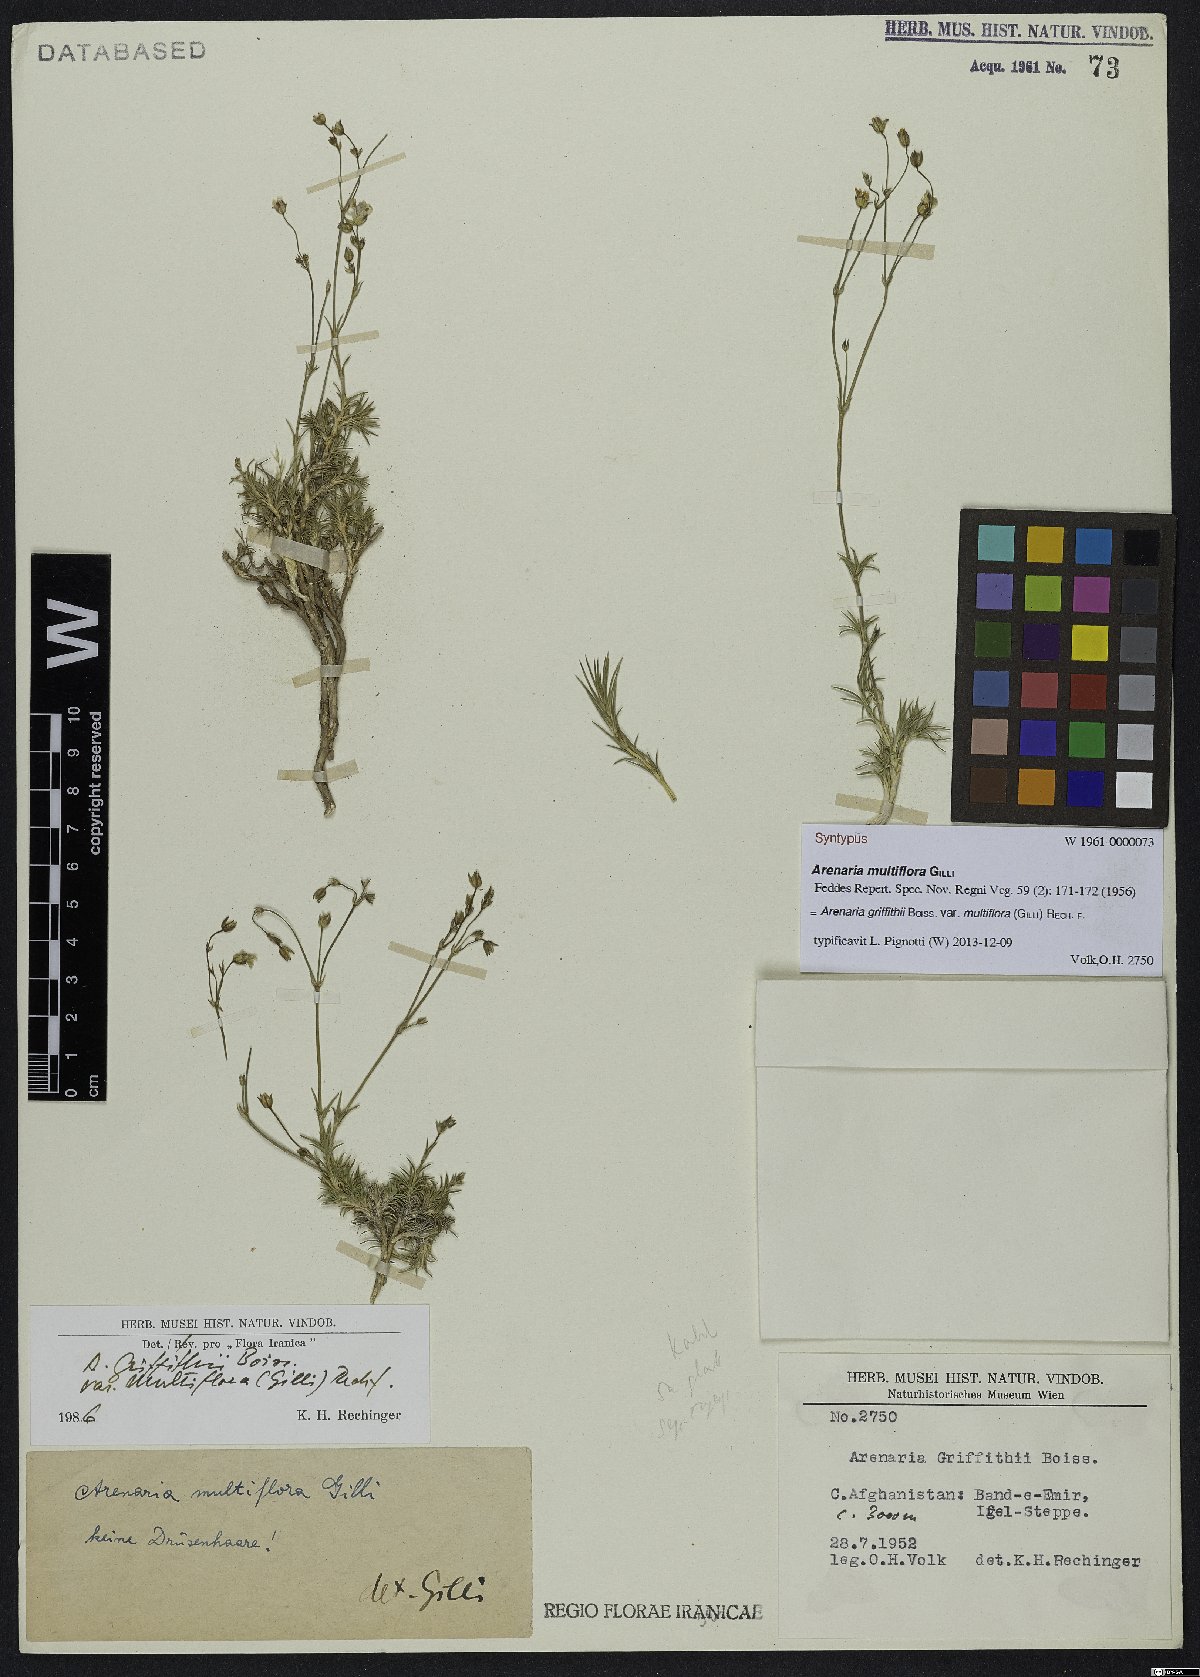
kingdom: Plantae
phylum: Tracheophyta
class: Magnoliopsida
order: Caryophyllales
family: Caryophyllaceae
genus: Eremogone
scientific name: Eremogone multiflora
